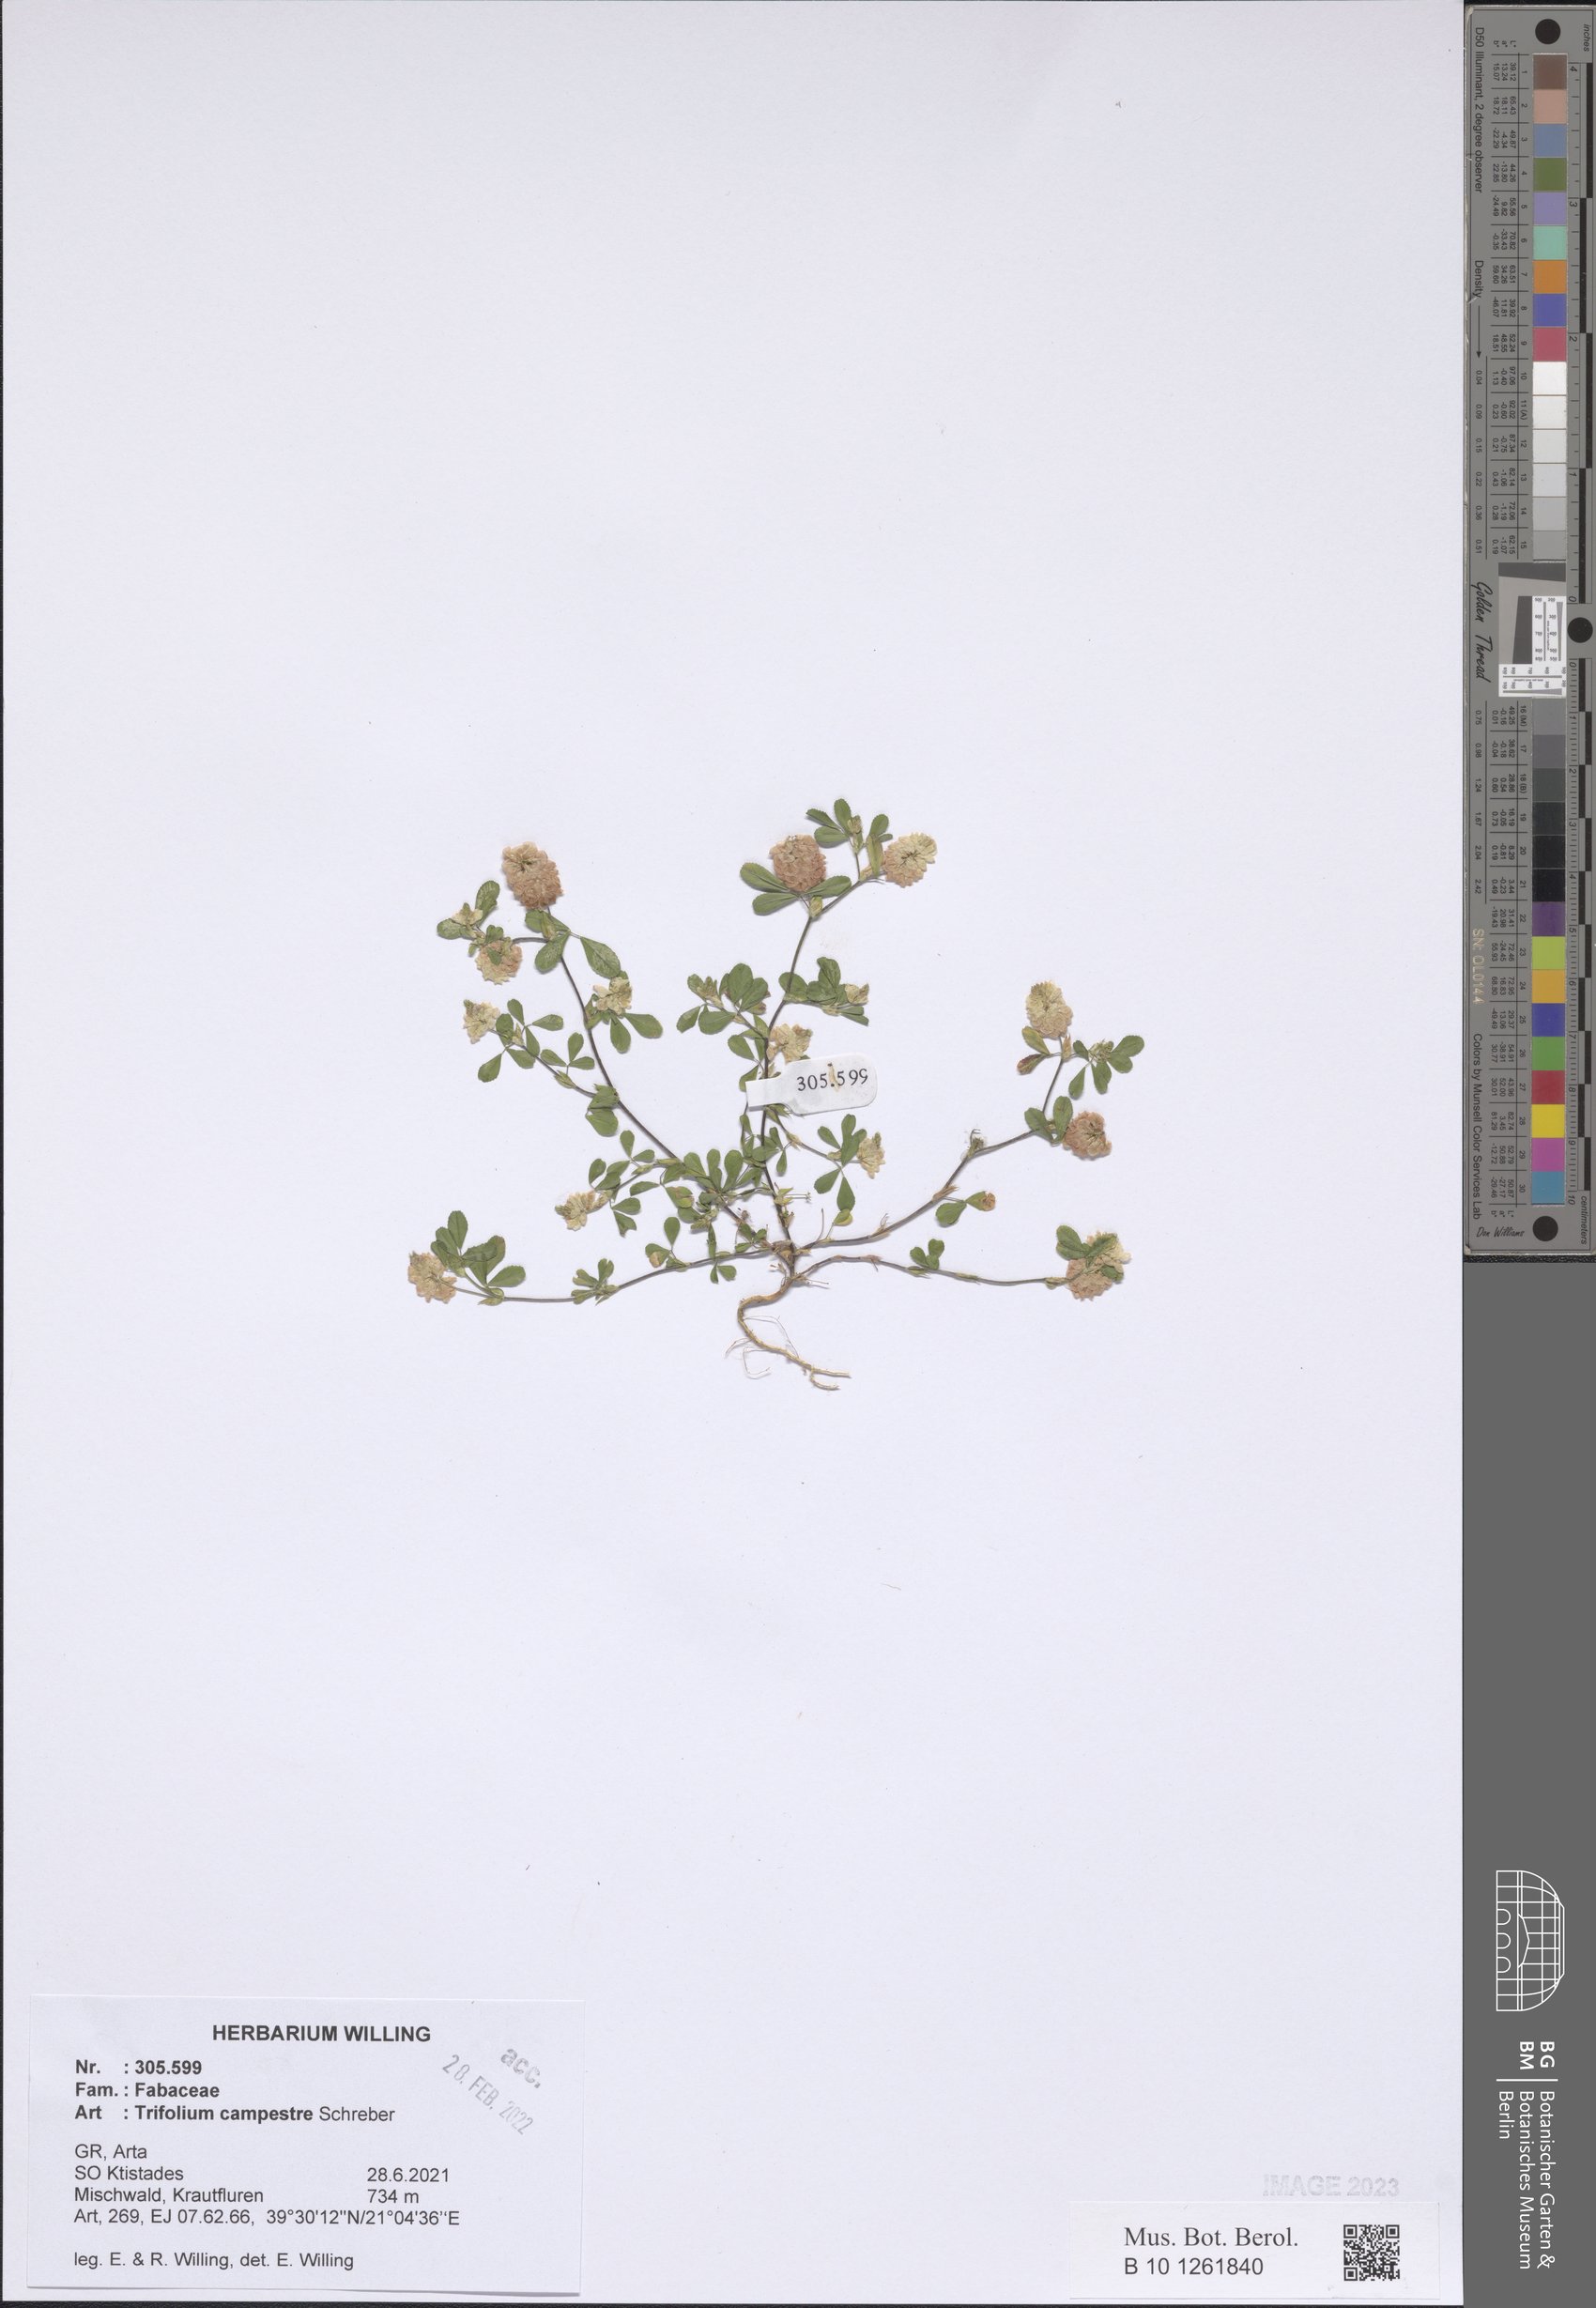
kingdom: Plantae
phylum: Tracheophyta
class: Magnoliopsida
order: Fabales
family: Fabaceae
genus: Trifolium
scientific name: Trifolium campestre
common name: Field clover
